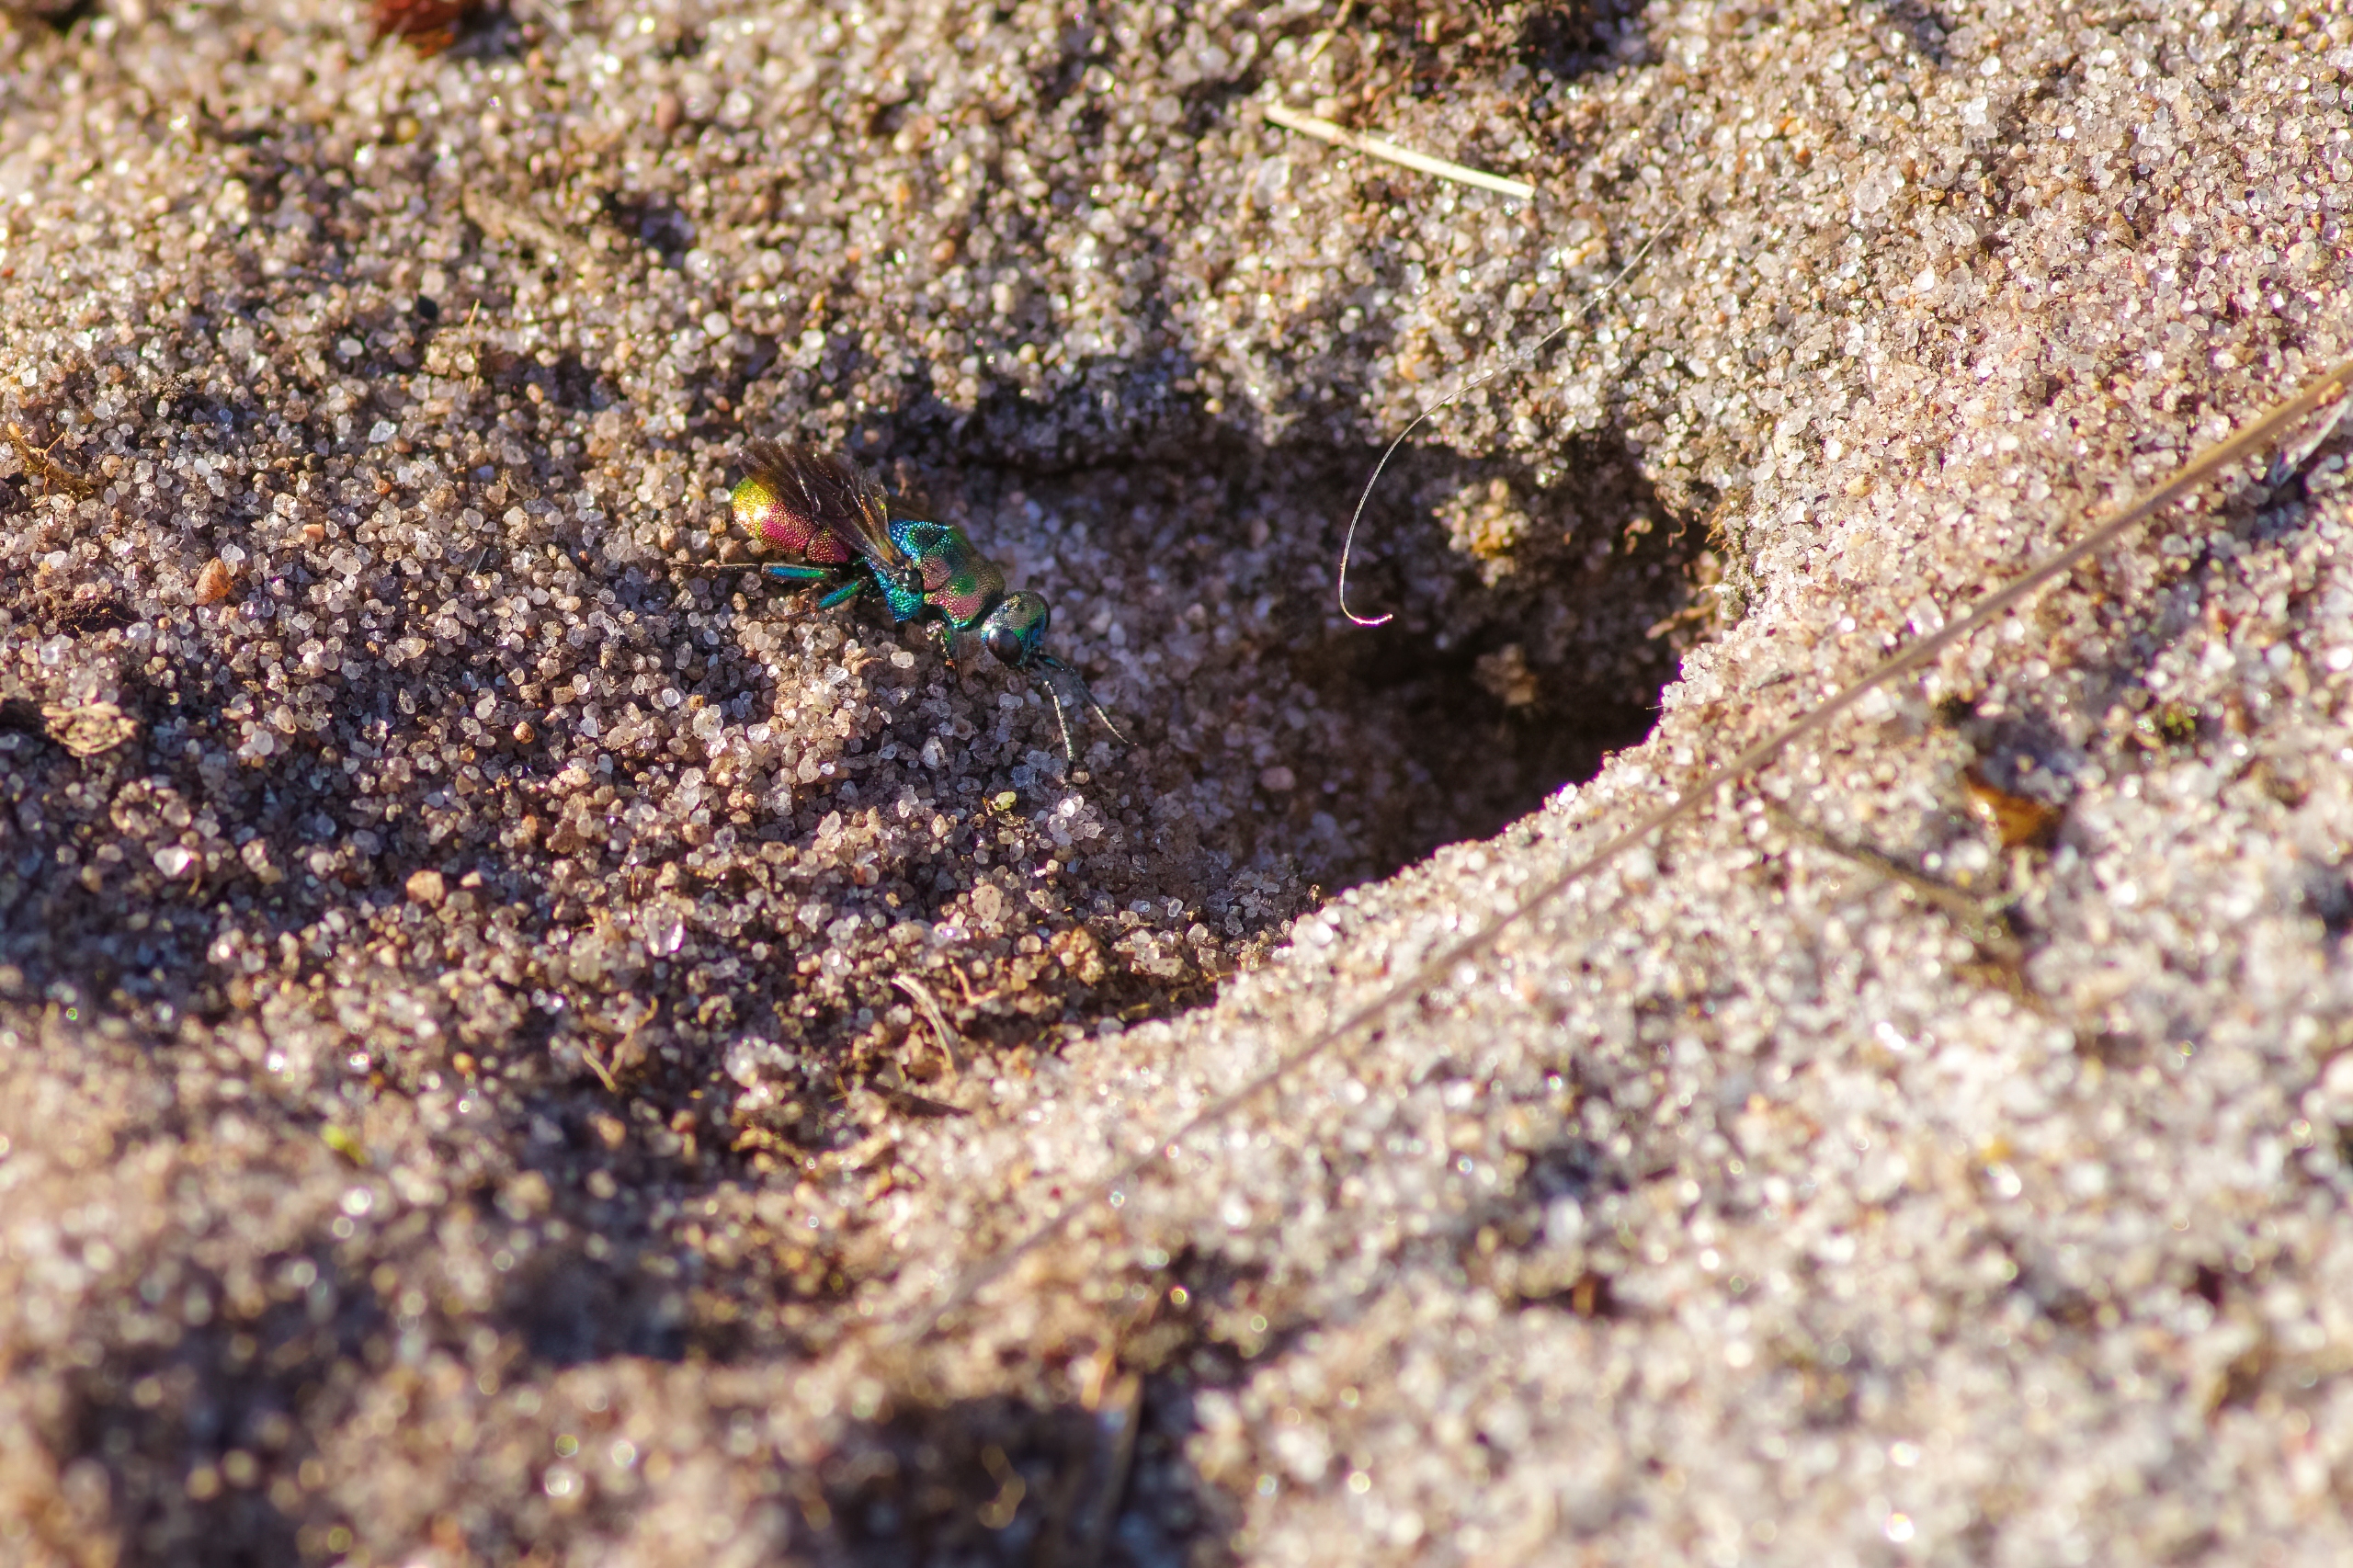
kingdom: Animalia
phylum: Arthropoda
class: Insecta
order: Hymenoptera
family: Chrysididae
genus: Hedychrum
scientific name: Hedychrum rutilans
